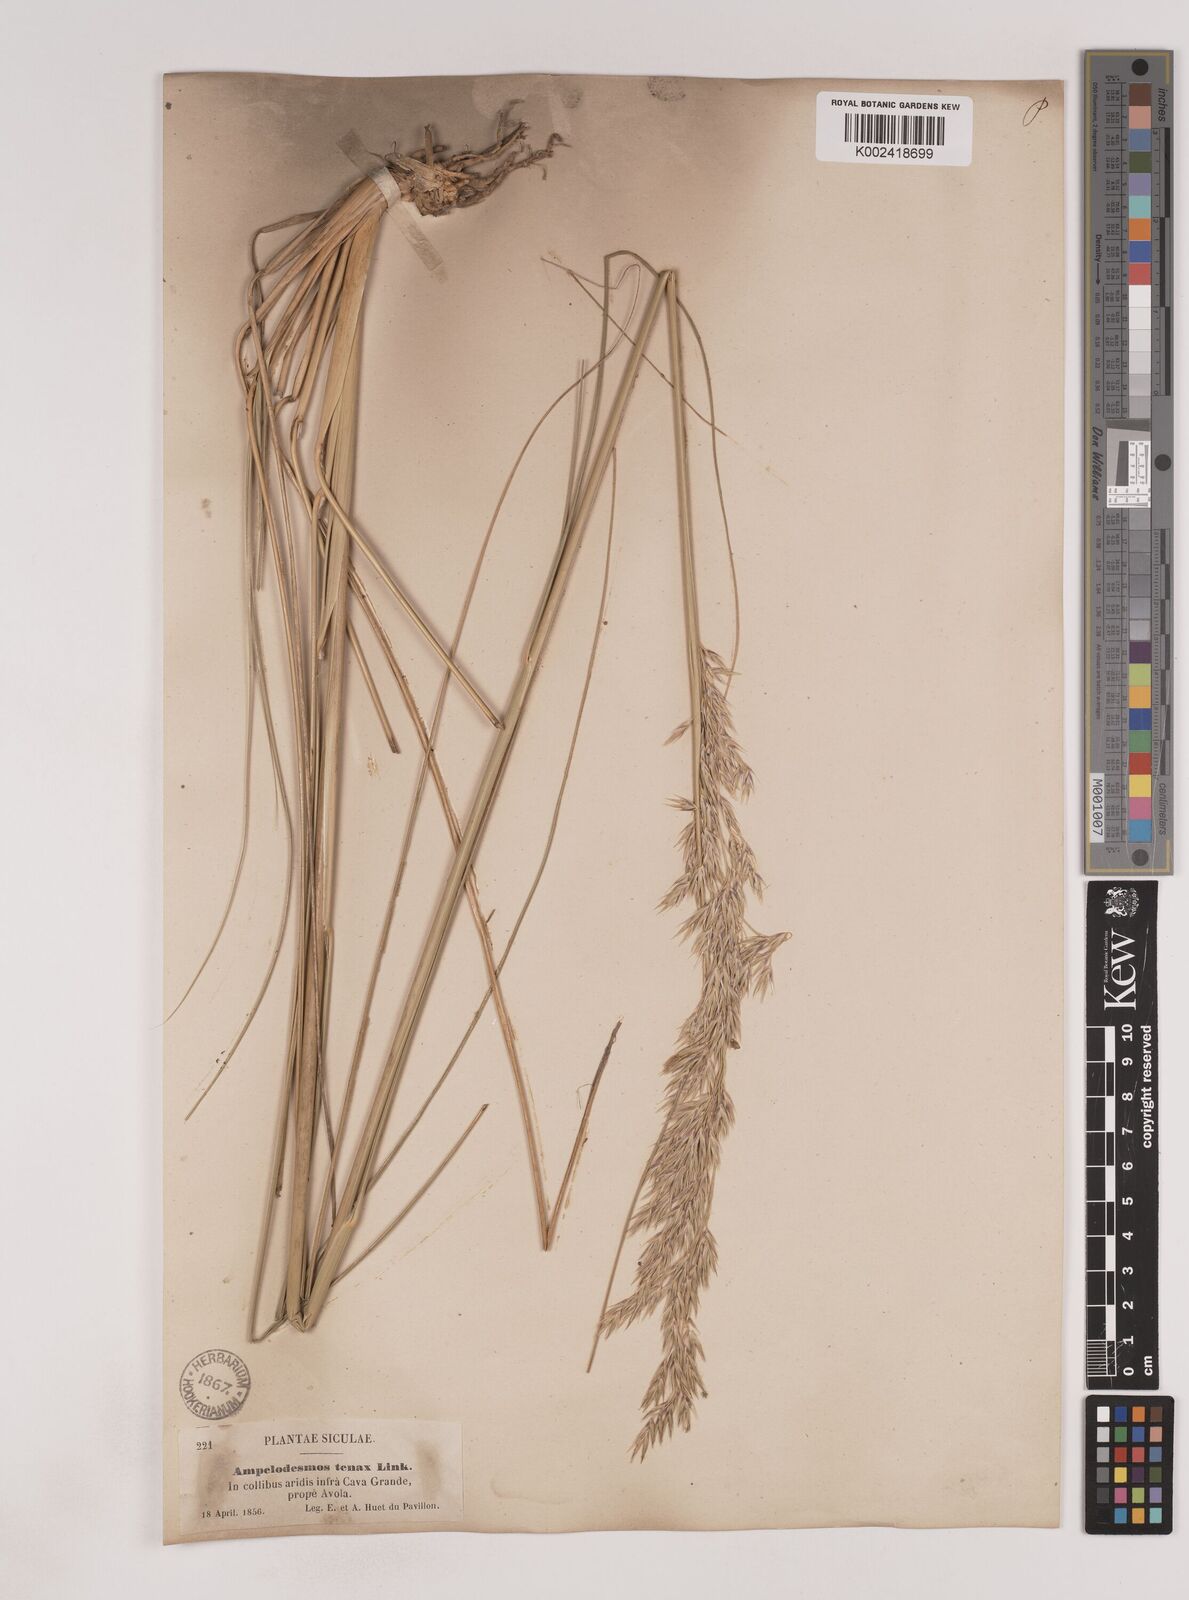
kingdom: Plantae
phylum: Tracheophyta
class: Liliopsida
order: Poales
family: Poaceae
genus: Ampelodesmos
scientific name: Ampelodesmos mauritanicus
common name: Mauritanian grass
